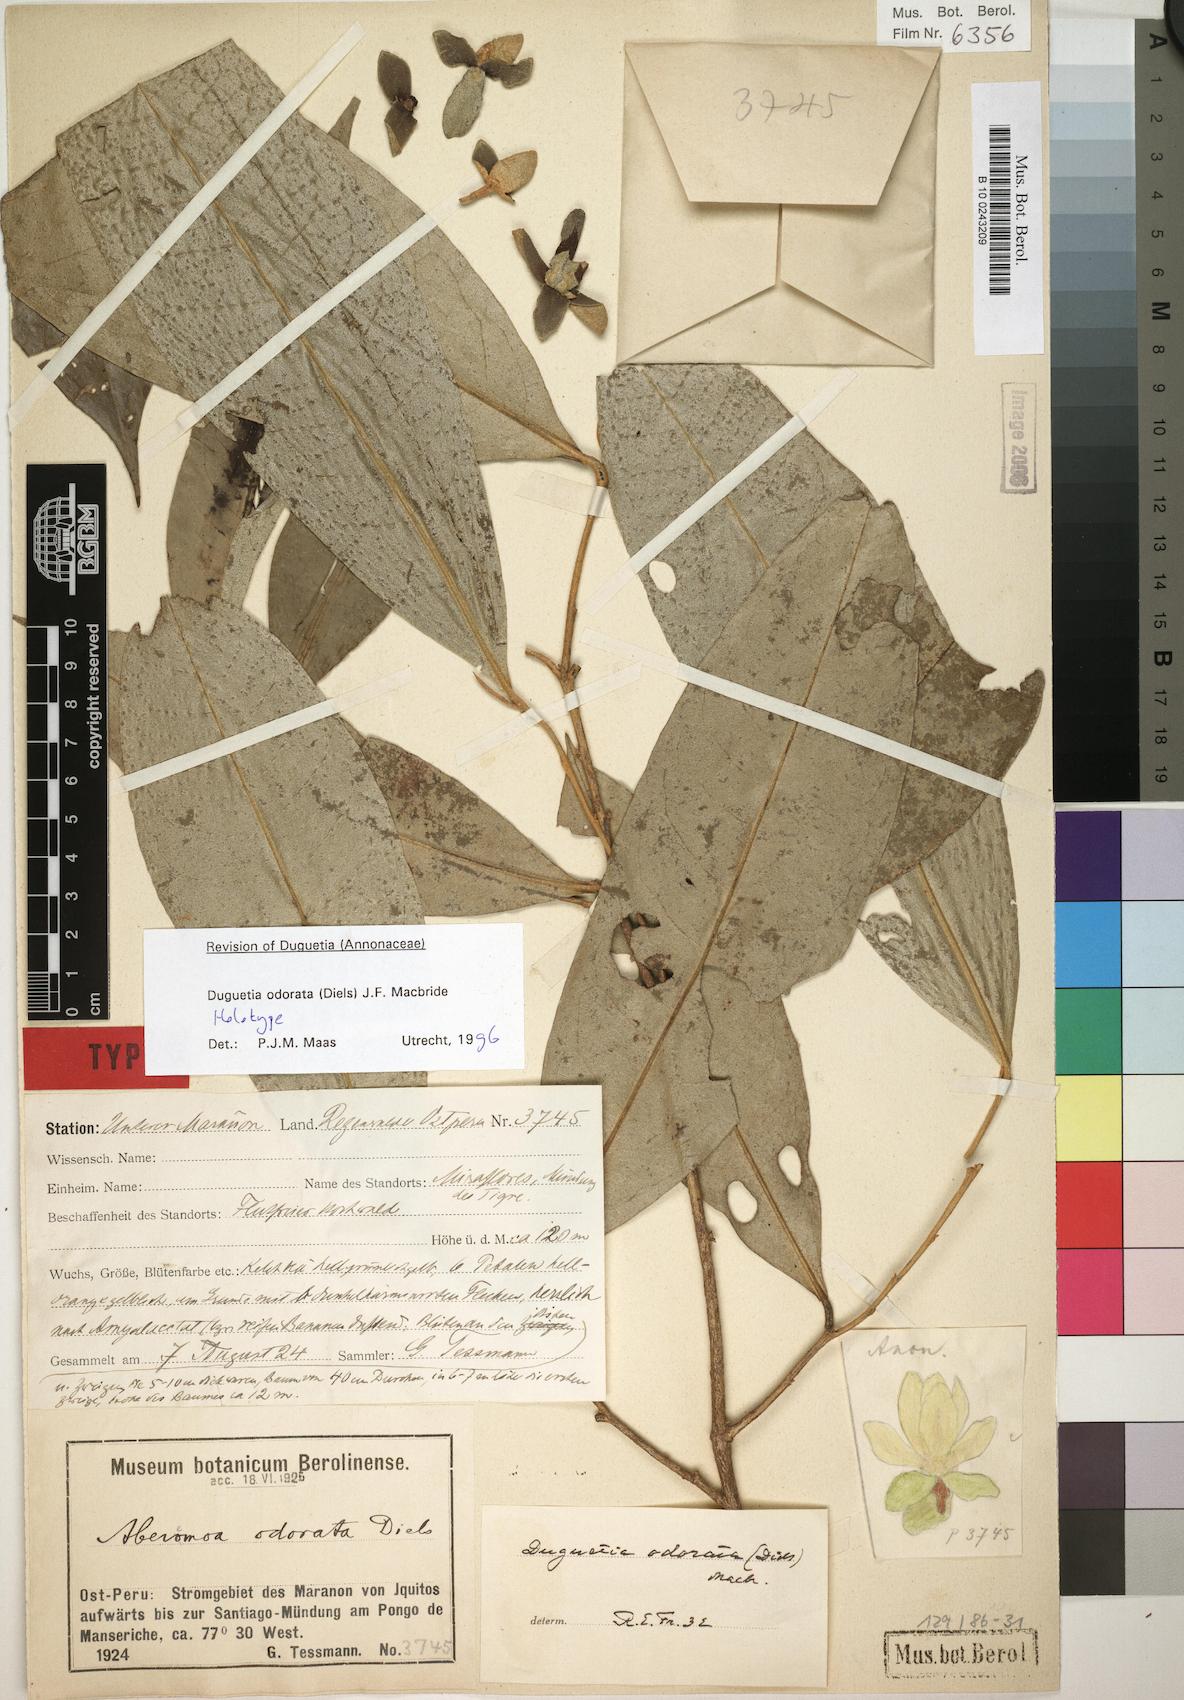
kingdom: Plantae
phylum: Tracheophyta
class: Magnoliopsida
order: Magnoliales
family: Annonaceae
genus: Duguetia
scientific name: Duguetia odorata
